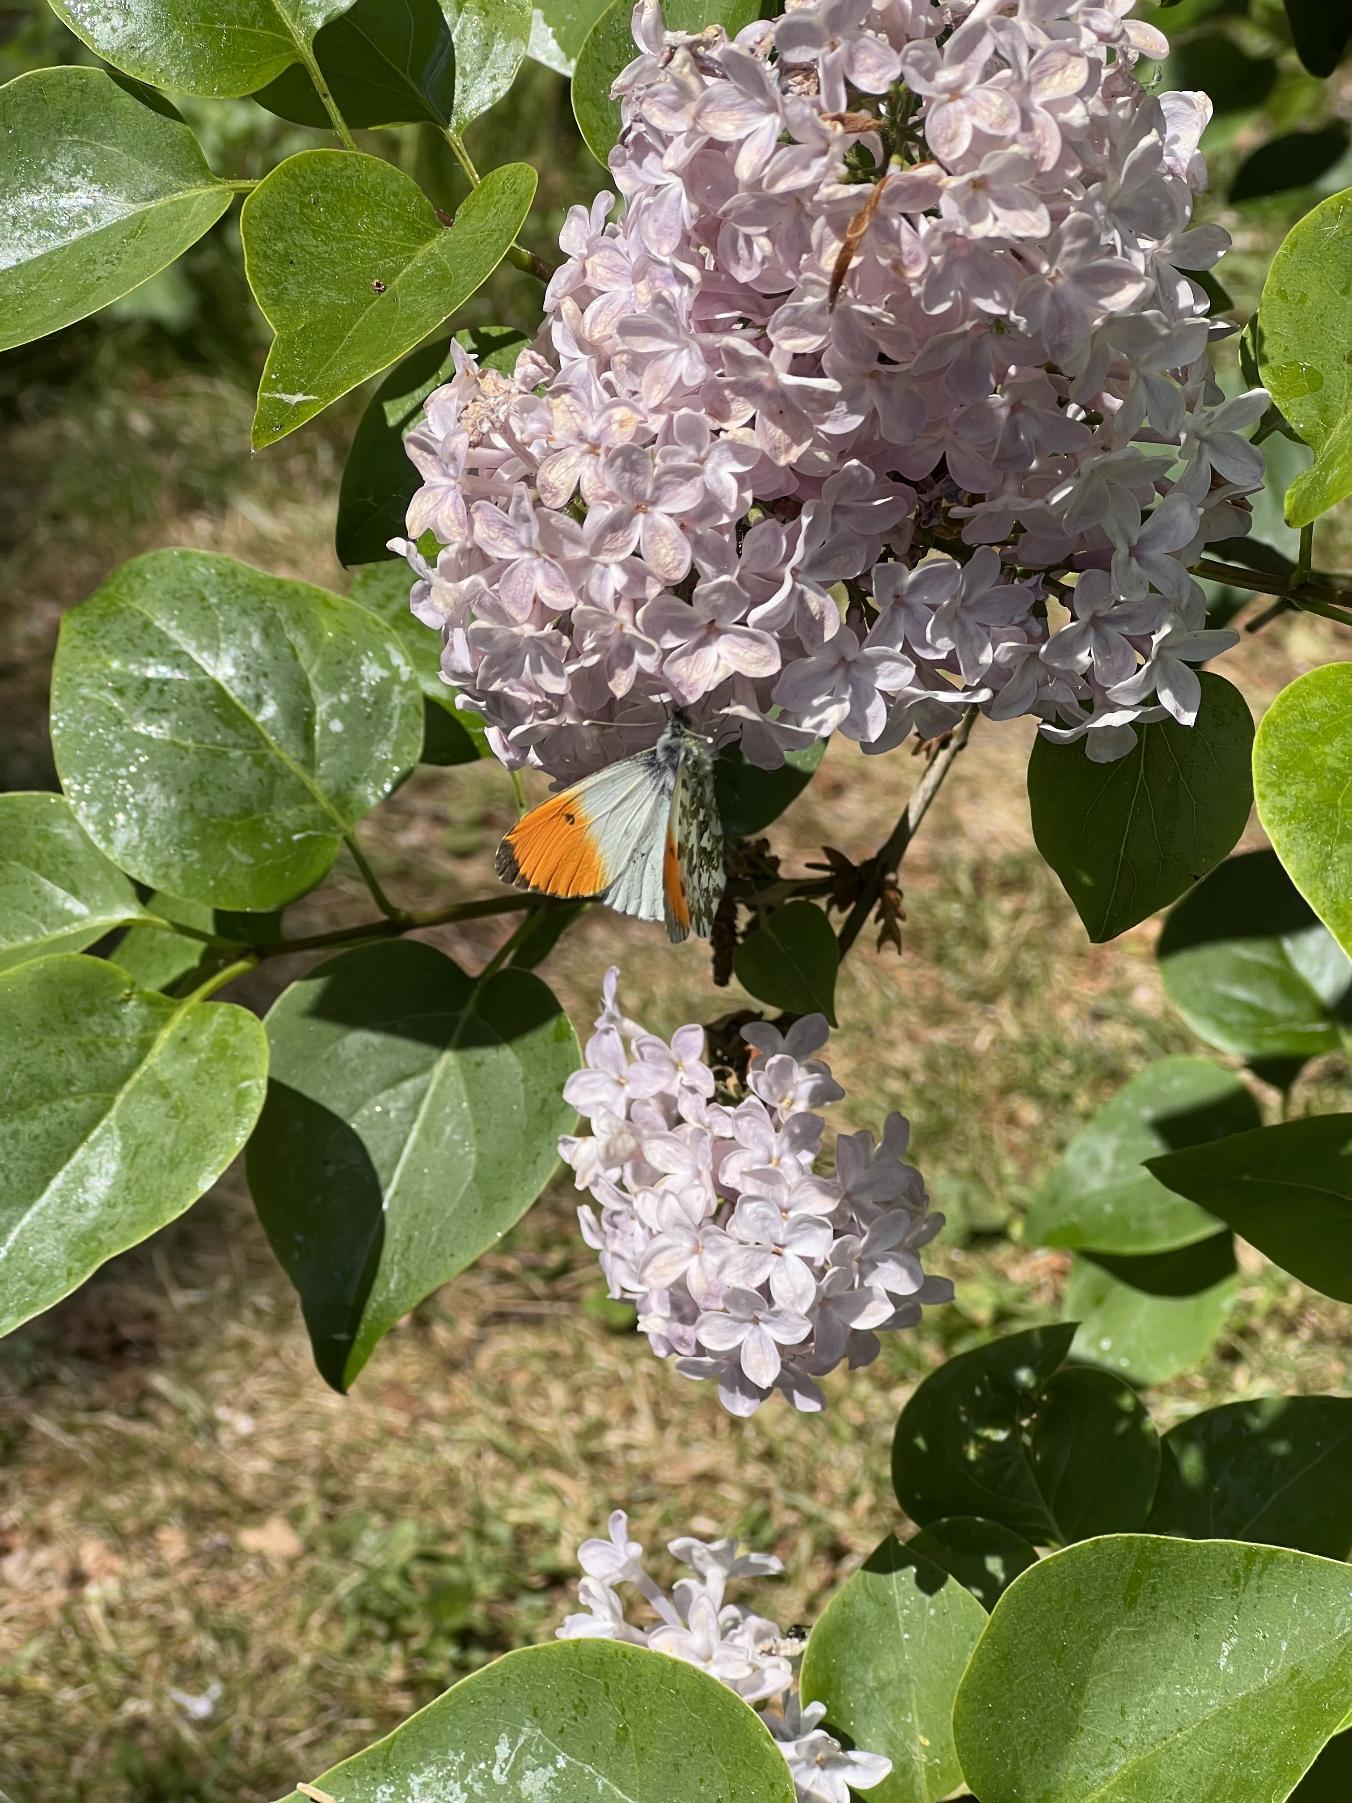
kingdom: Animalia
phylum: Arthropoda
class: Insecta
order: Lepidoptera
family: Pieridae
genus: Anthocharis
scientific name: Anthocharis cardamines
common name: Aurora
